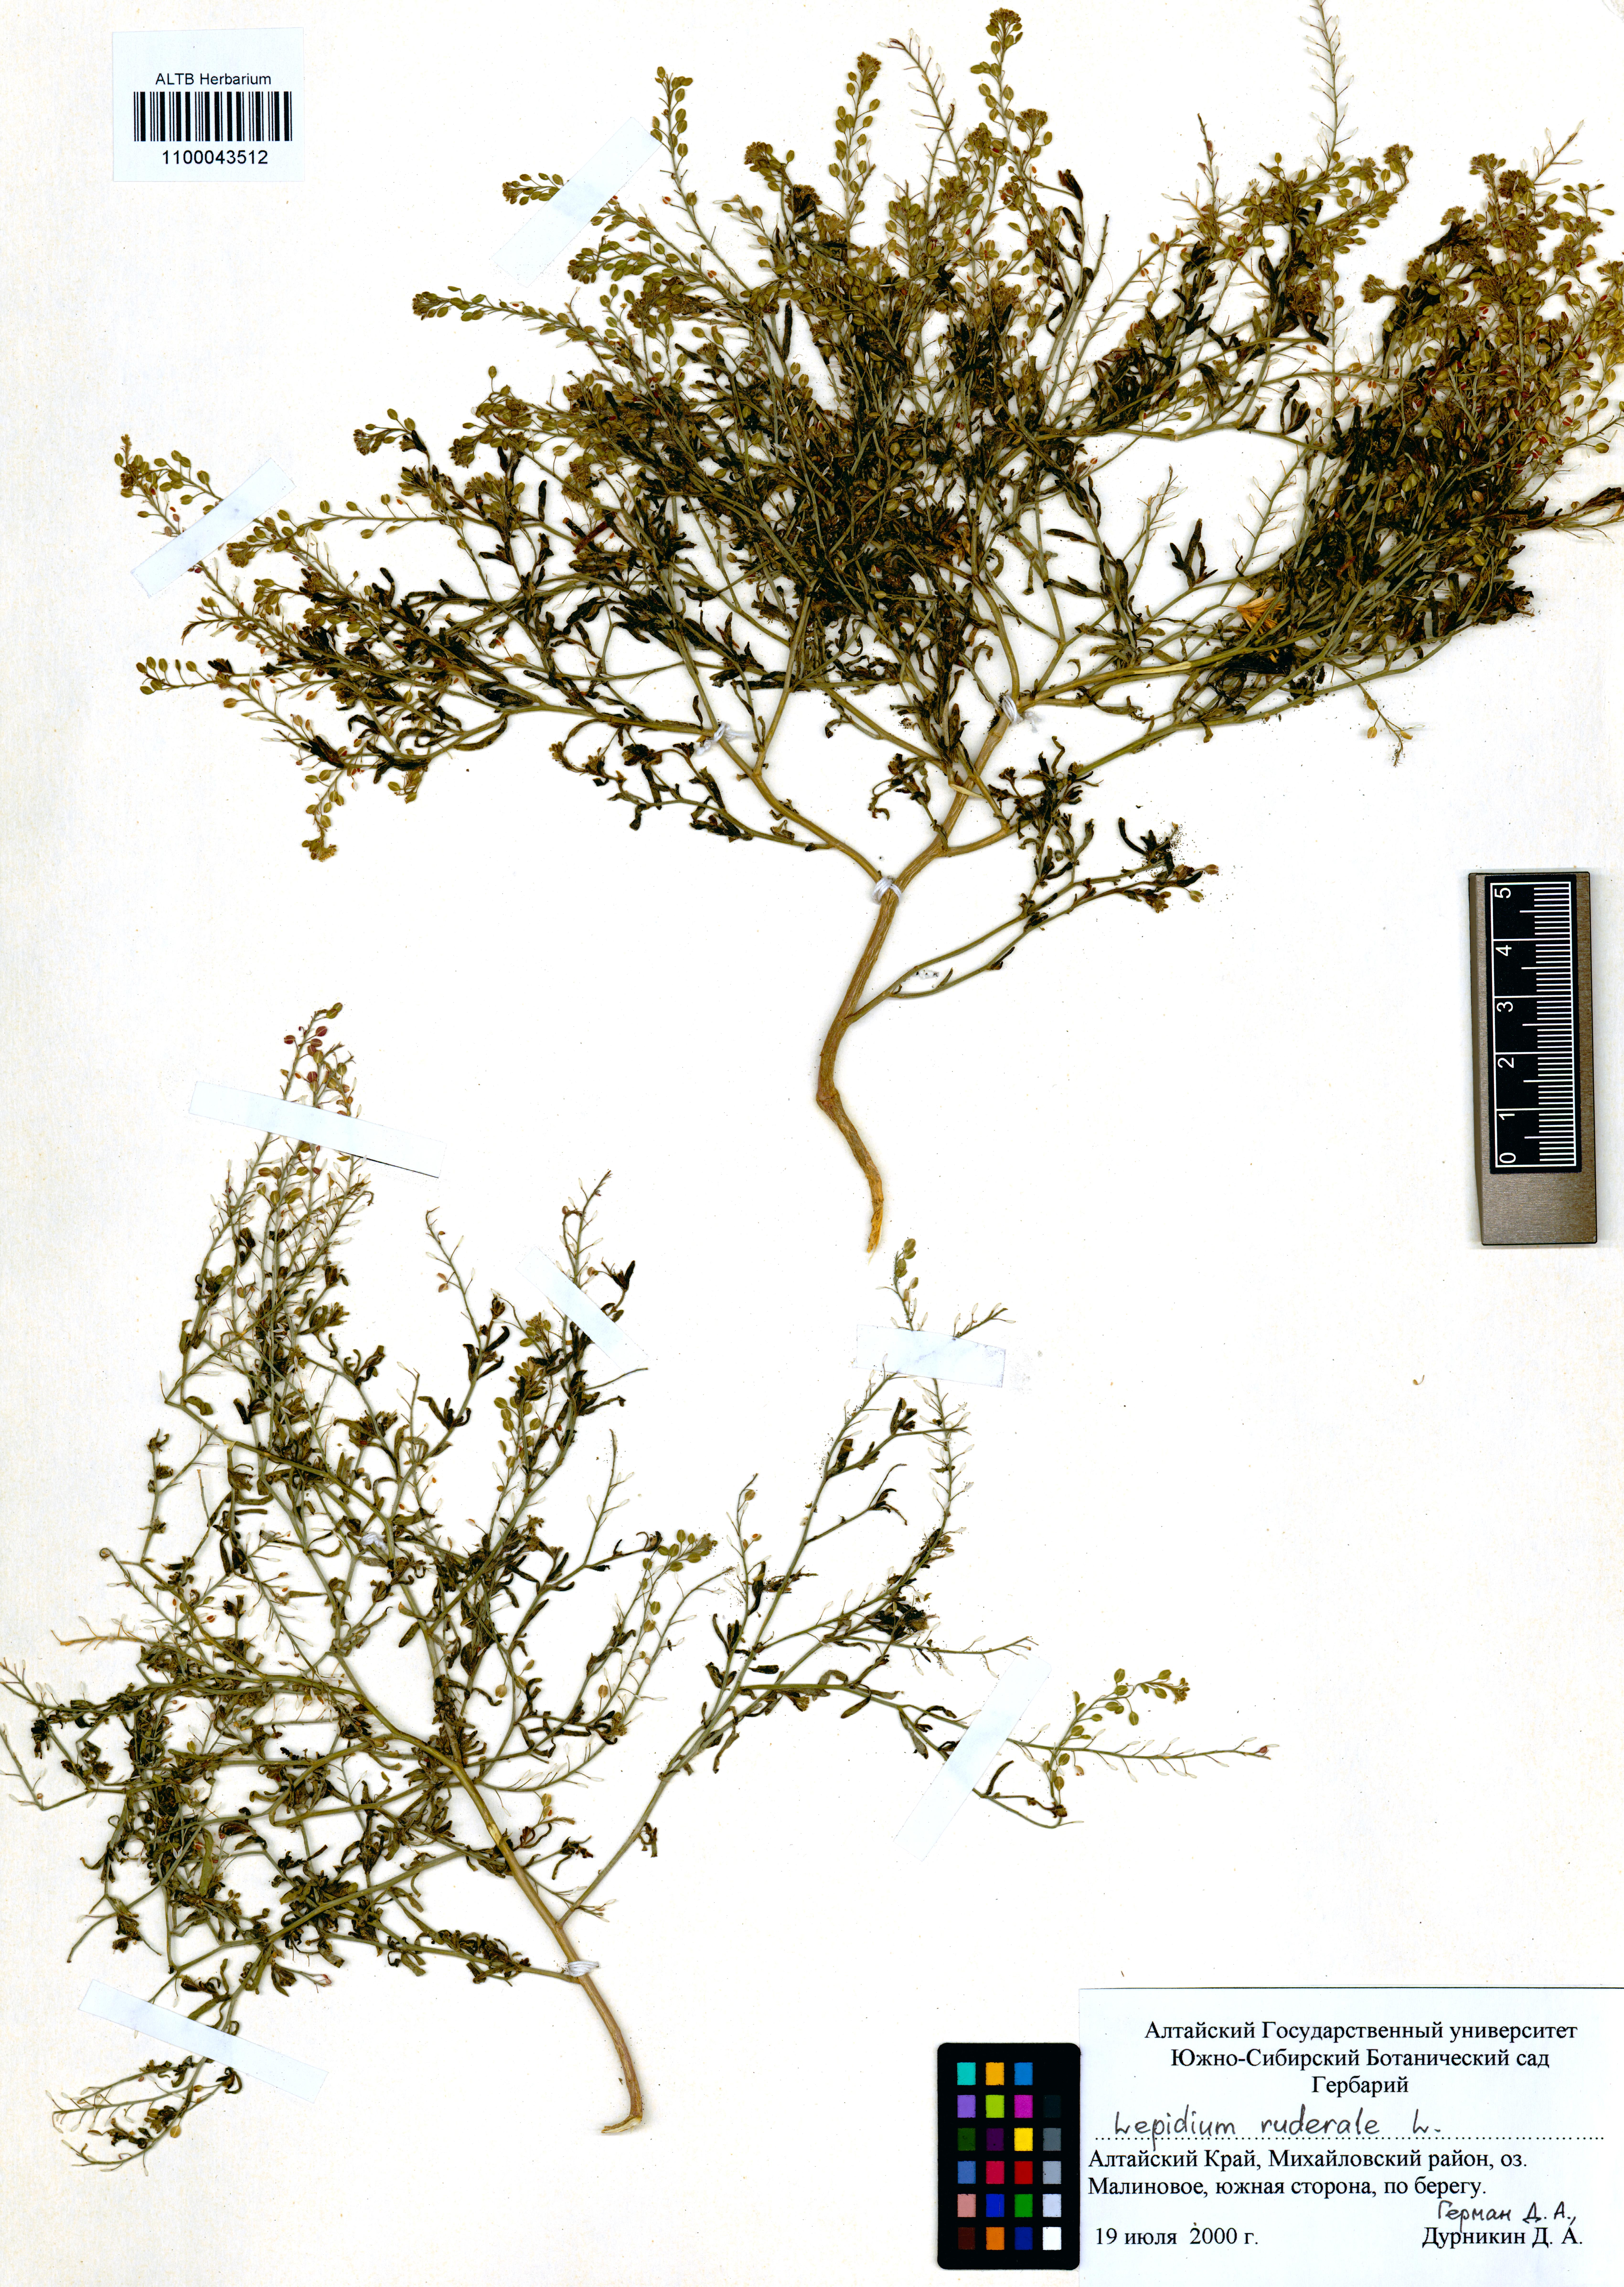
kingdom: Plantae
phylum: Tracheophyta
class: Magnoliopsida
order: Brassicales
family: Brassicaceae
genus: Lepidium
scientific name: Lepidium ruderale
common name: Narrow-leaved pepperwort
